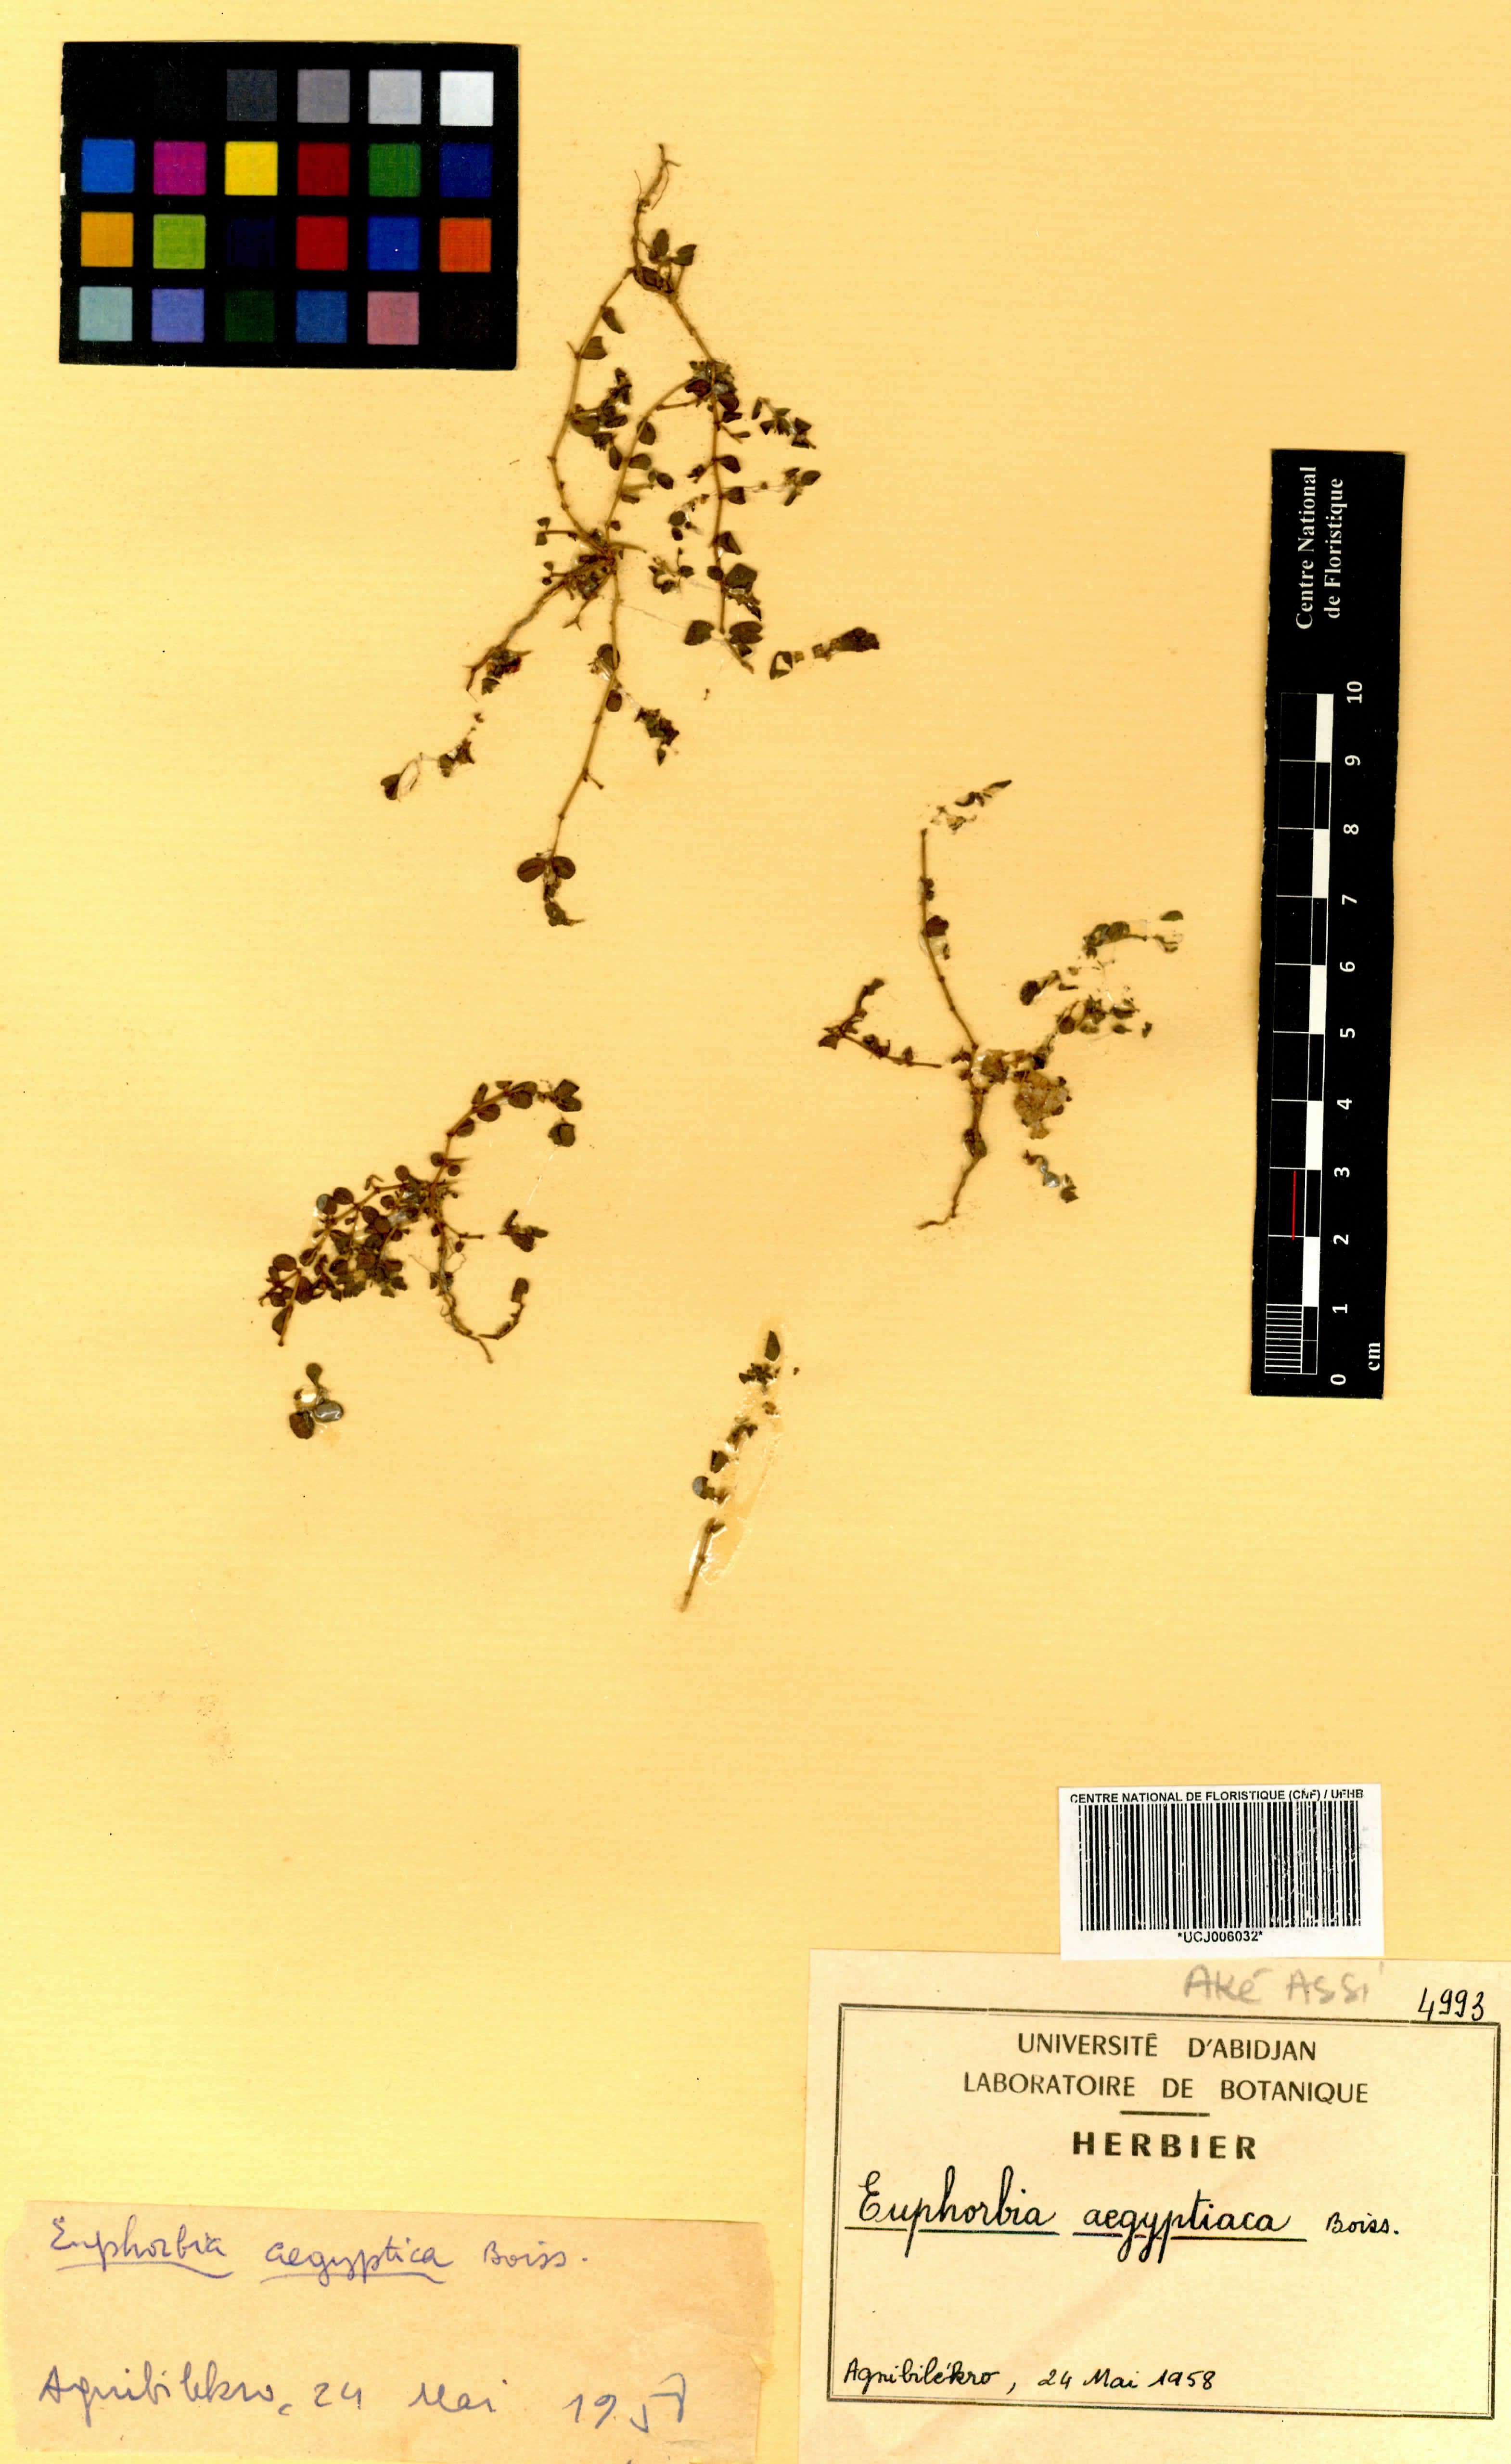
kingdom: Plantae
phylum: Tracheophyta
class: Magnoliopsida
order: Malpighiales
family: Euphorbiaceae
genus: Euphorbia
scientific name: Euphorbia forskaolii
